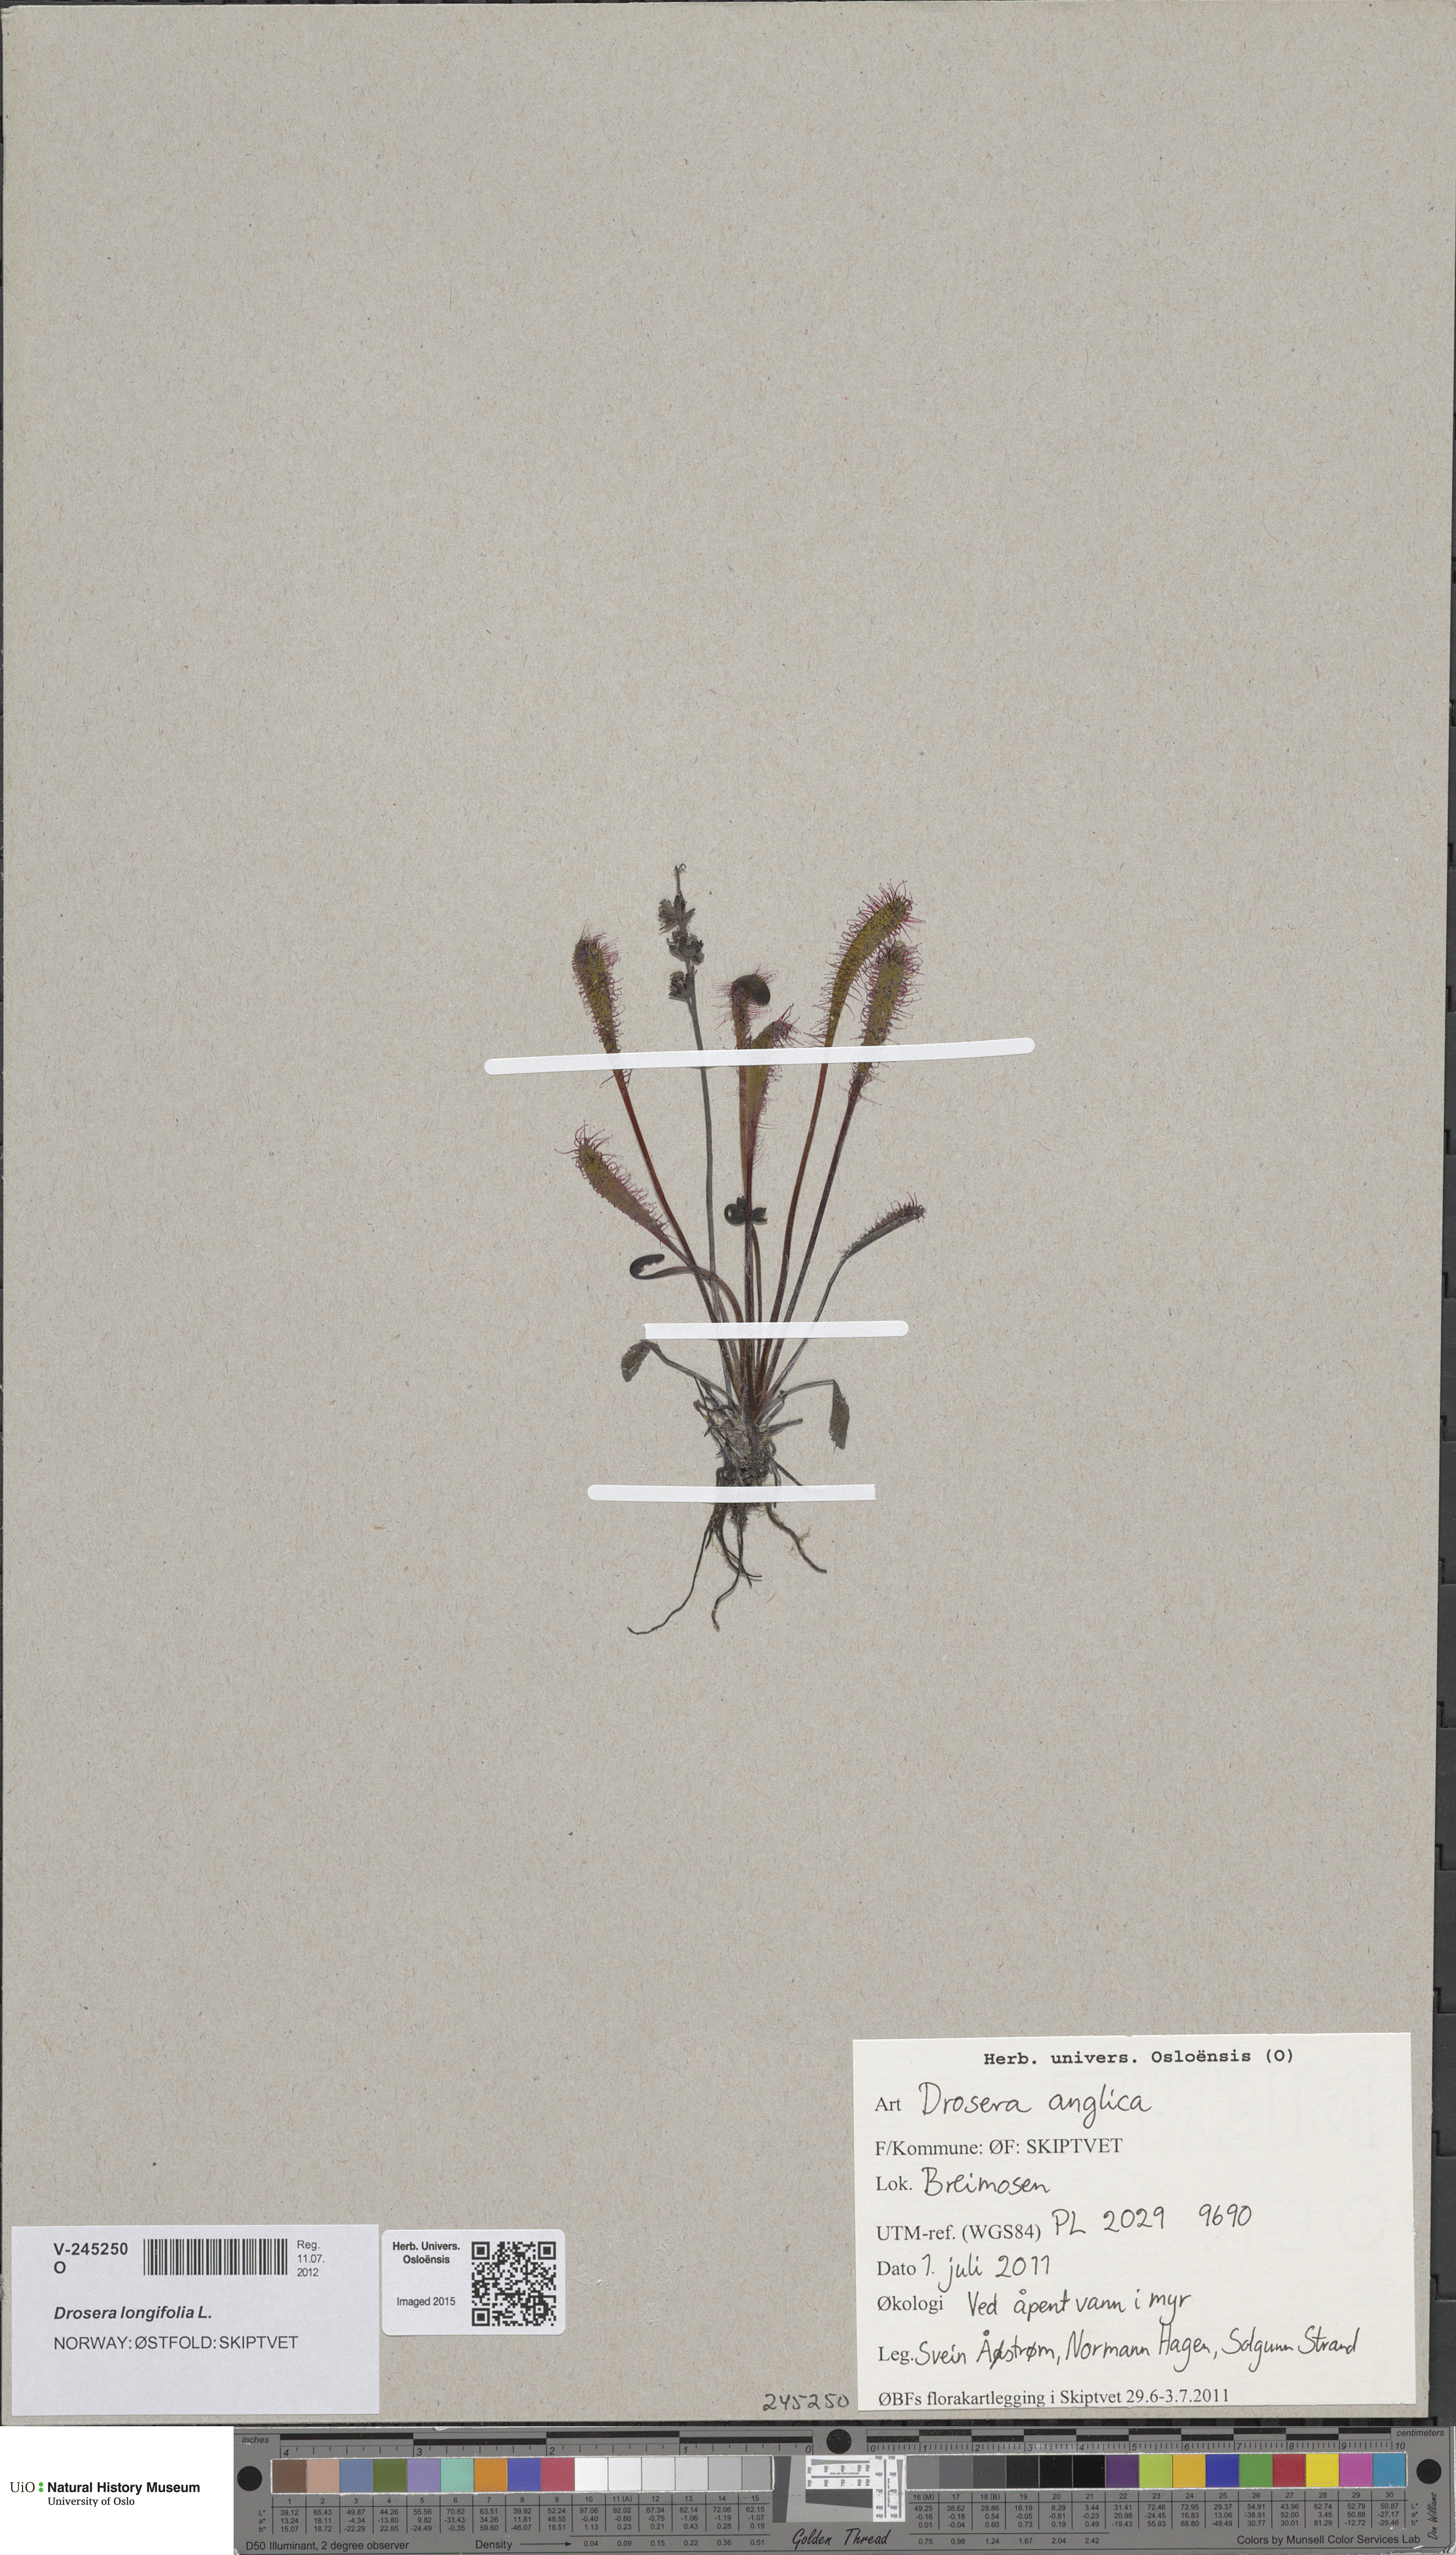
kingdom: Plantae
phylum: Tracheophyta
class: Magnoliopsida
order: Caryophyllales
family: Droseraceae
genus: Drosera
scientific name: Drosera anglica
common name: Great sundew
